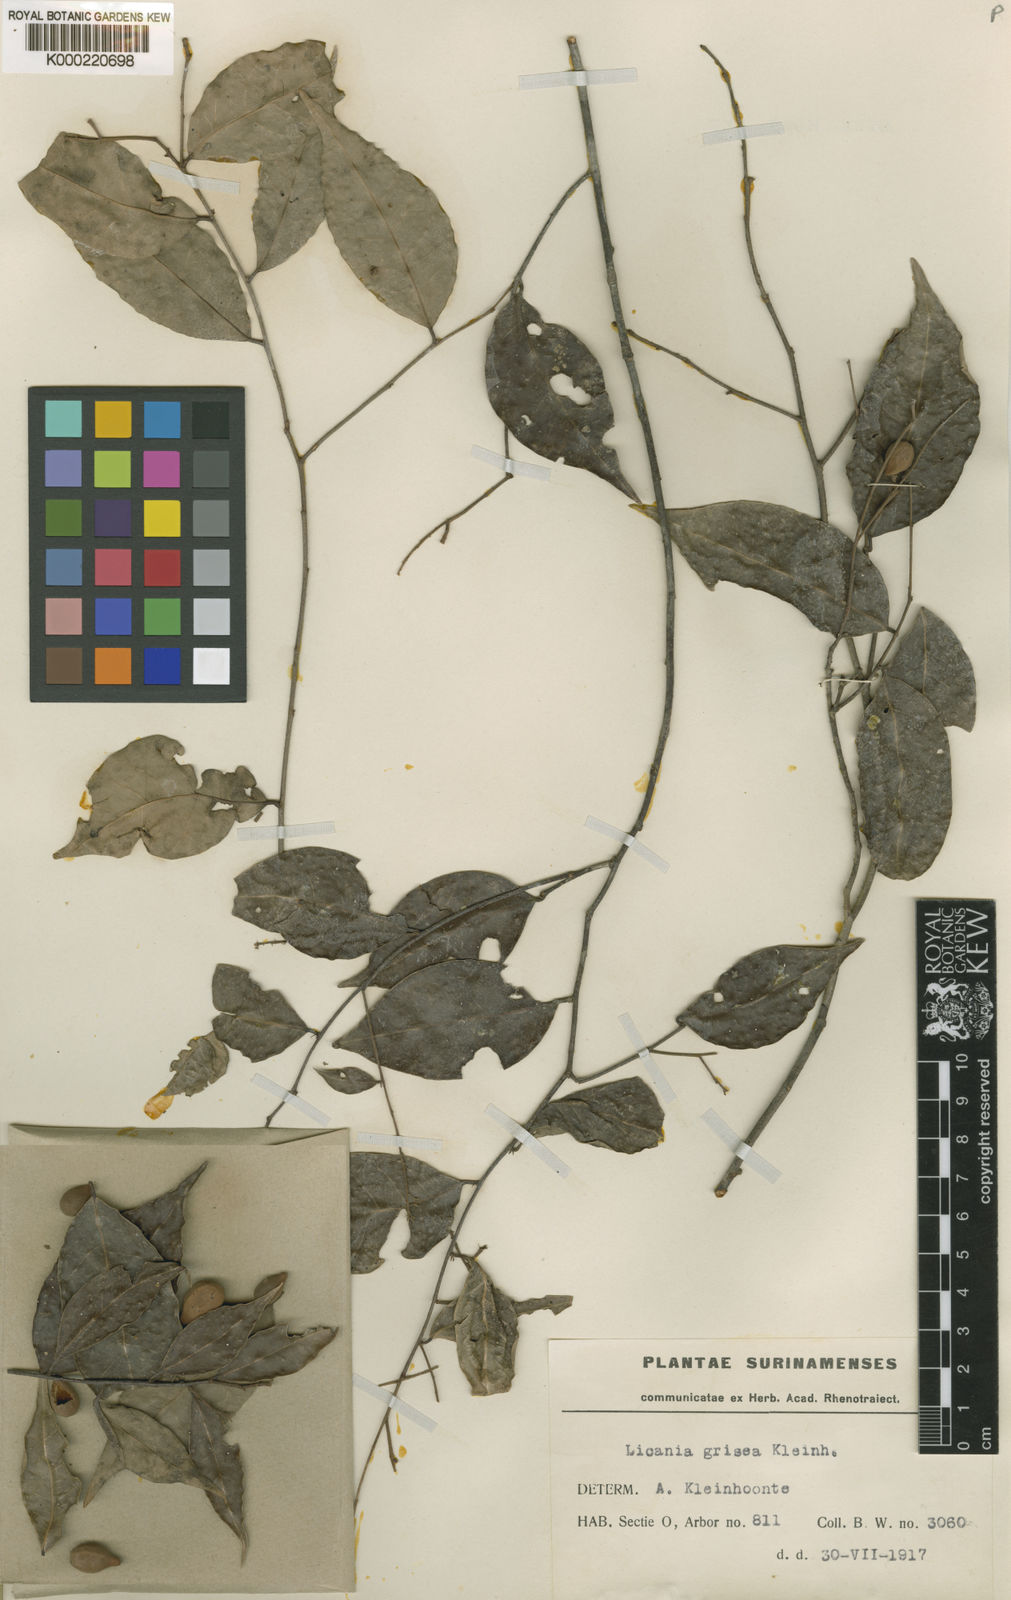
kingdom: Plantae
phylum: Tracheophyta
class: Magnoliopsida
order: Malpighiales
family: Chrysobalanaceae
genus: Licania
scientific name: Licania hypoleuca
